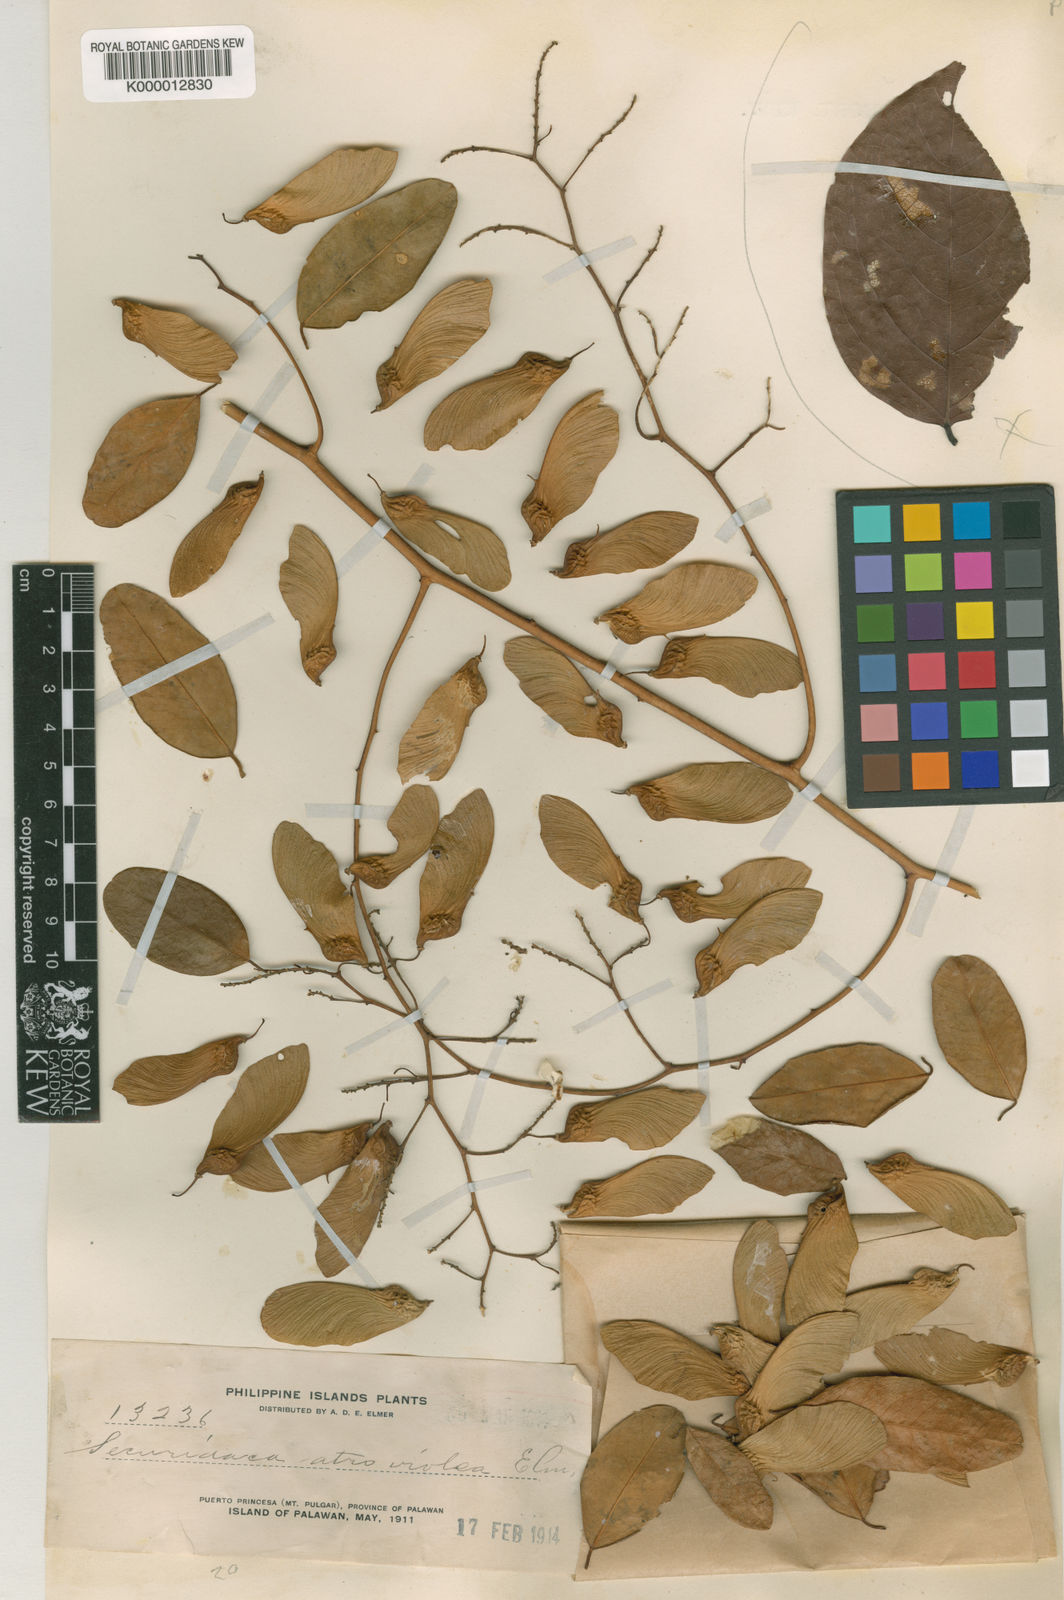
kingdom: Plantae
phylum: Tracheophyta
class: Magnoliopsida
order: Fabales
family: Polygalaceae
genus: Securidaca
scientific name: Securidaca atroviolacea
